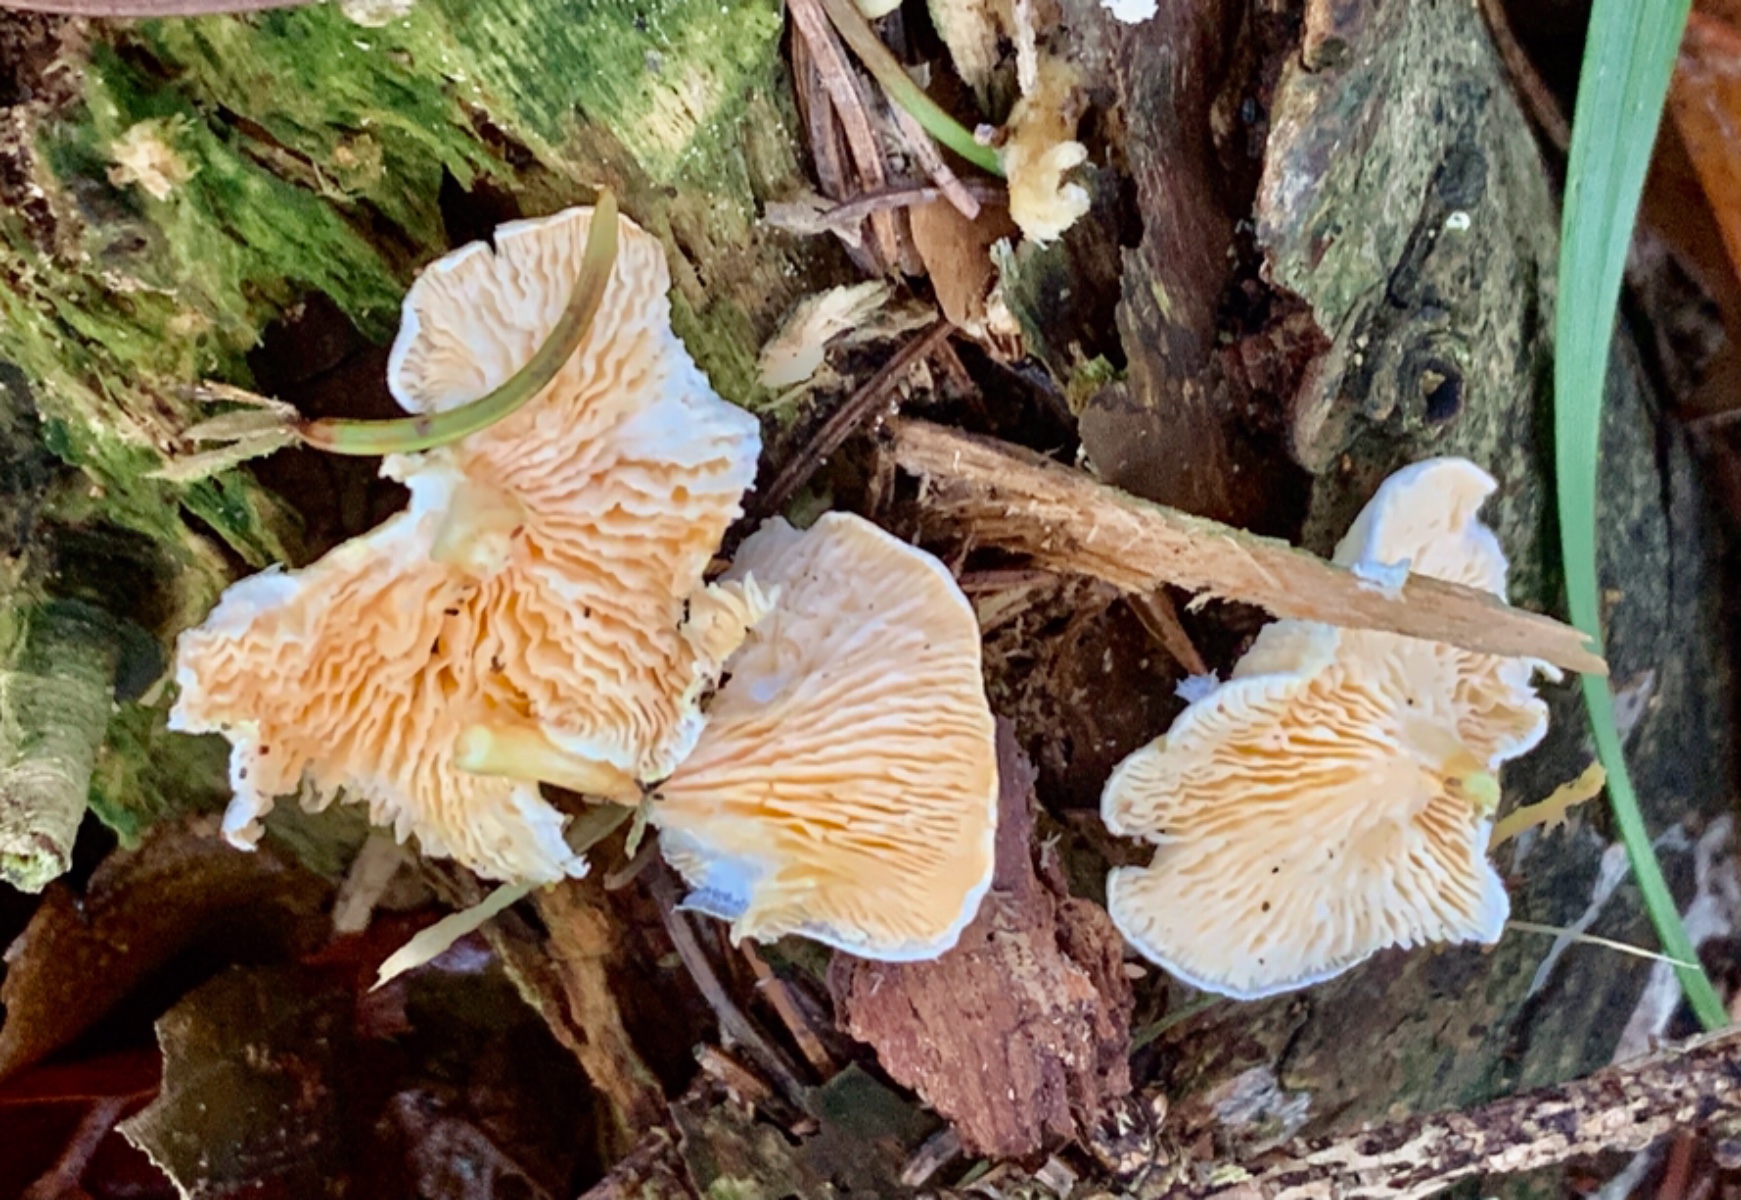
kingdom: Fungi
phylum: Basidiomycota
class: Agaricomycetes
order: Boletales
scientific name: Boletales
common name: rørhatordenen
